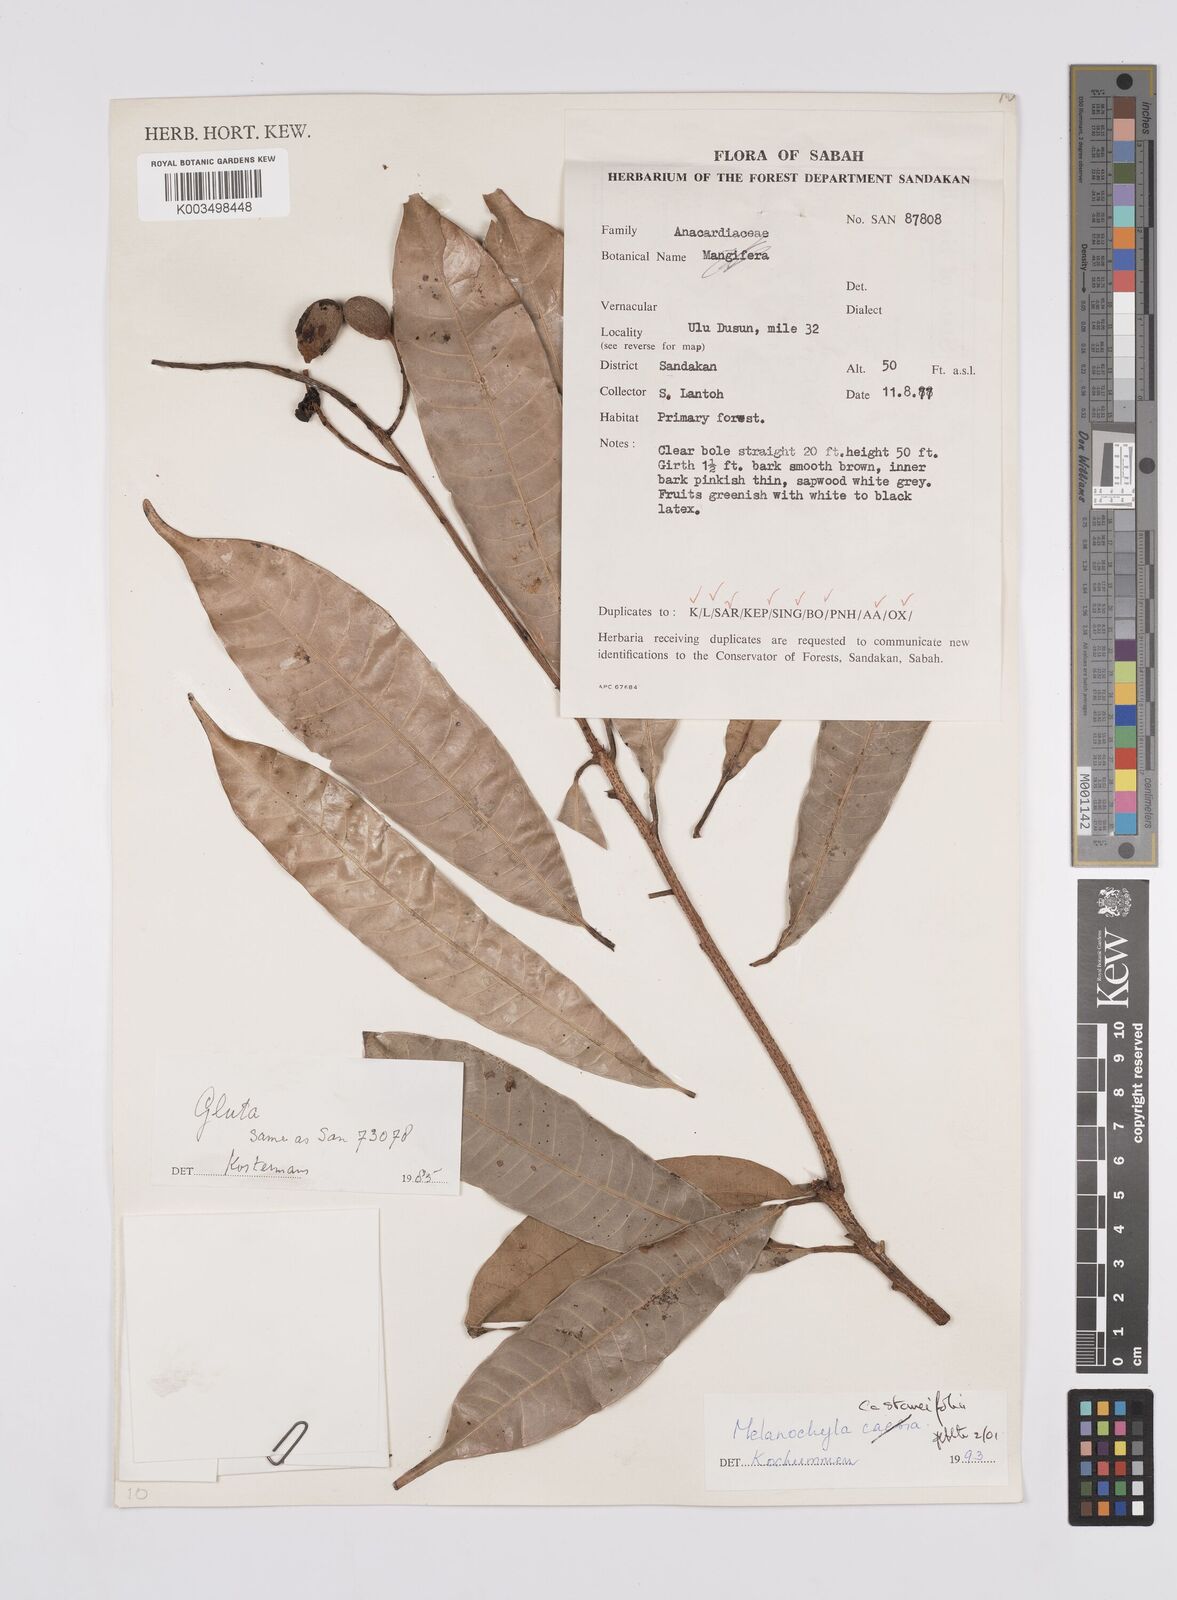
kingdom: Plantae
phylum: Tracheophyta
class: Magnoliopsida
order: Sapindales
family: Anacardiaceae
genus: Melanochyla
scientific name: Melanochyla castaneifolia
